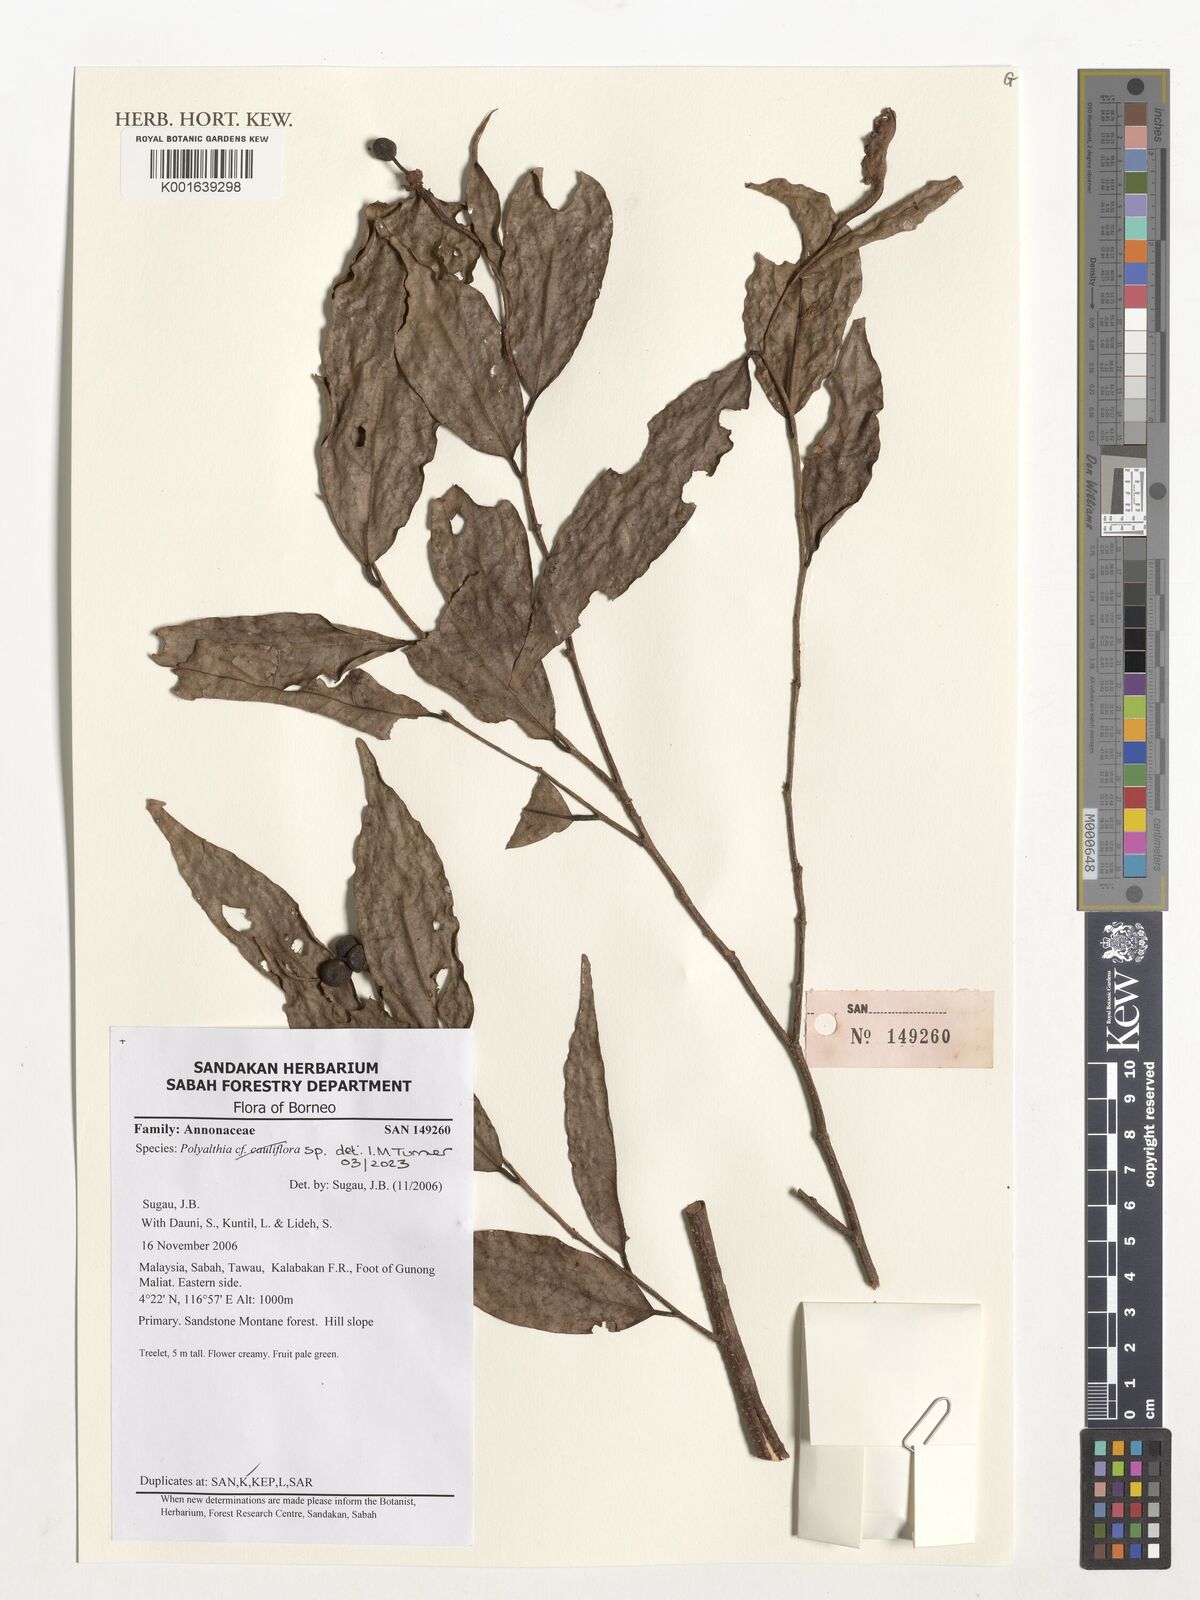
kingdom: Plantae
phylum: Tracheophyta
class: Magnoliopsida
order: Magnoliales
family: Annonaceae
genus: Polyalthia
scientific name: Polyalthia
